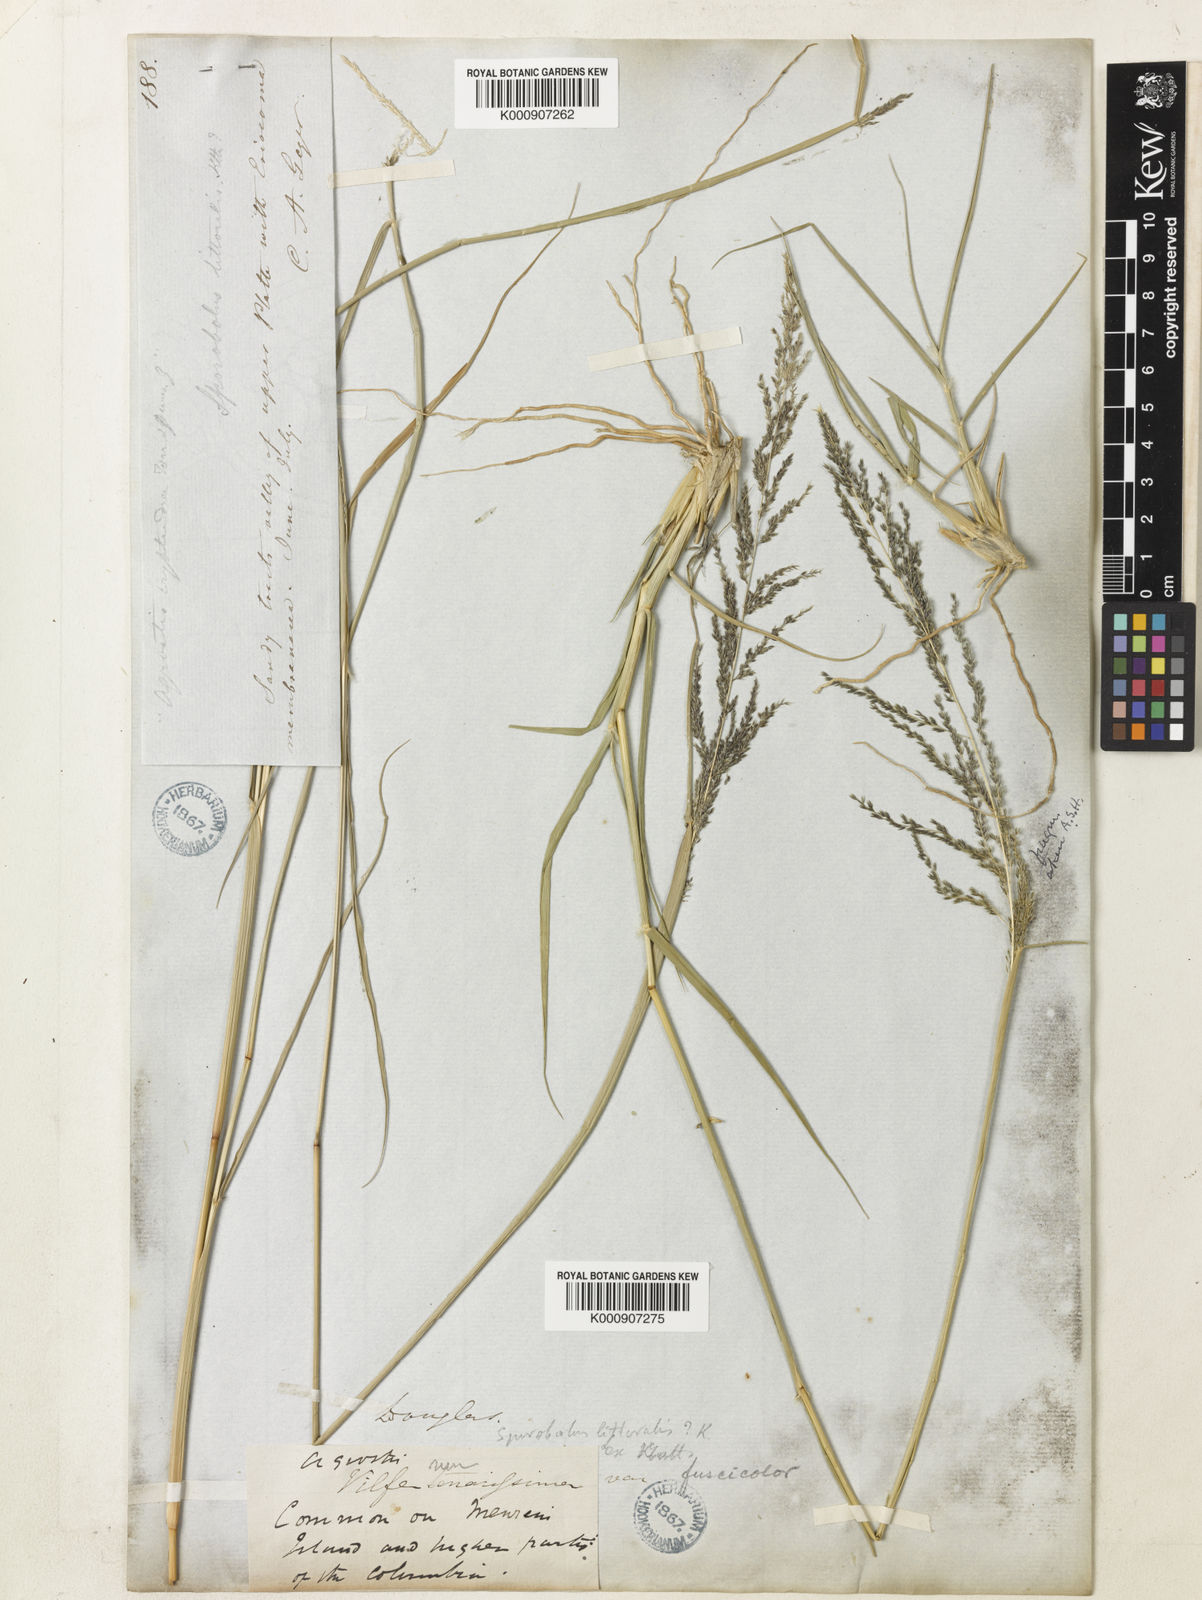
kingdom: Plantae
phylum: Tracheophyta
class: Liliopsida
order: Poales
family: Poaceae
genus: Sporobolus
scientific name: Sporobolus cryptandrus
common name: Sand dropseed
